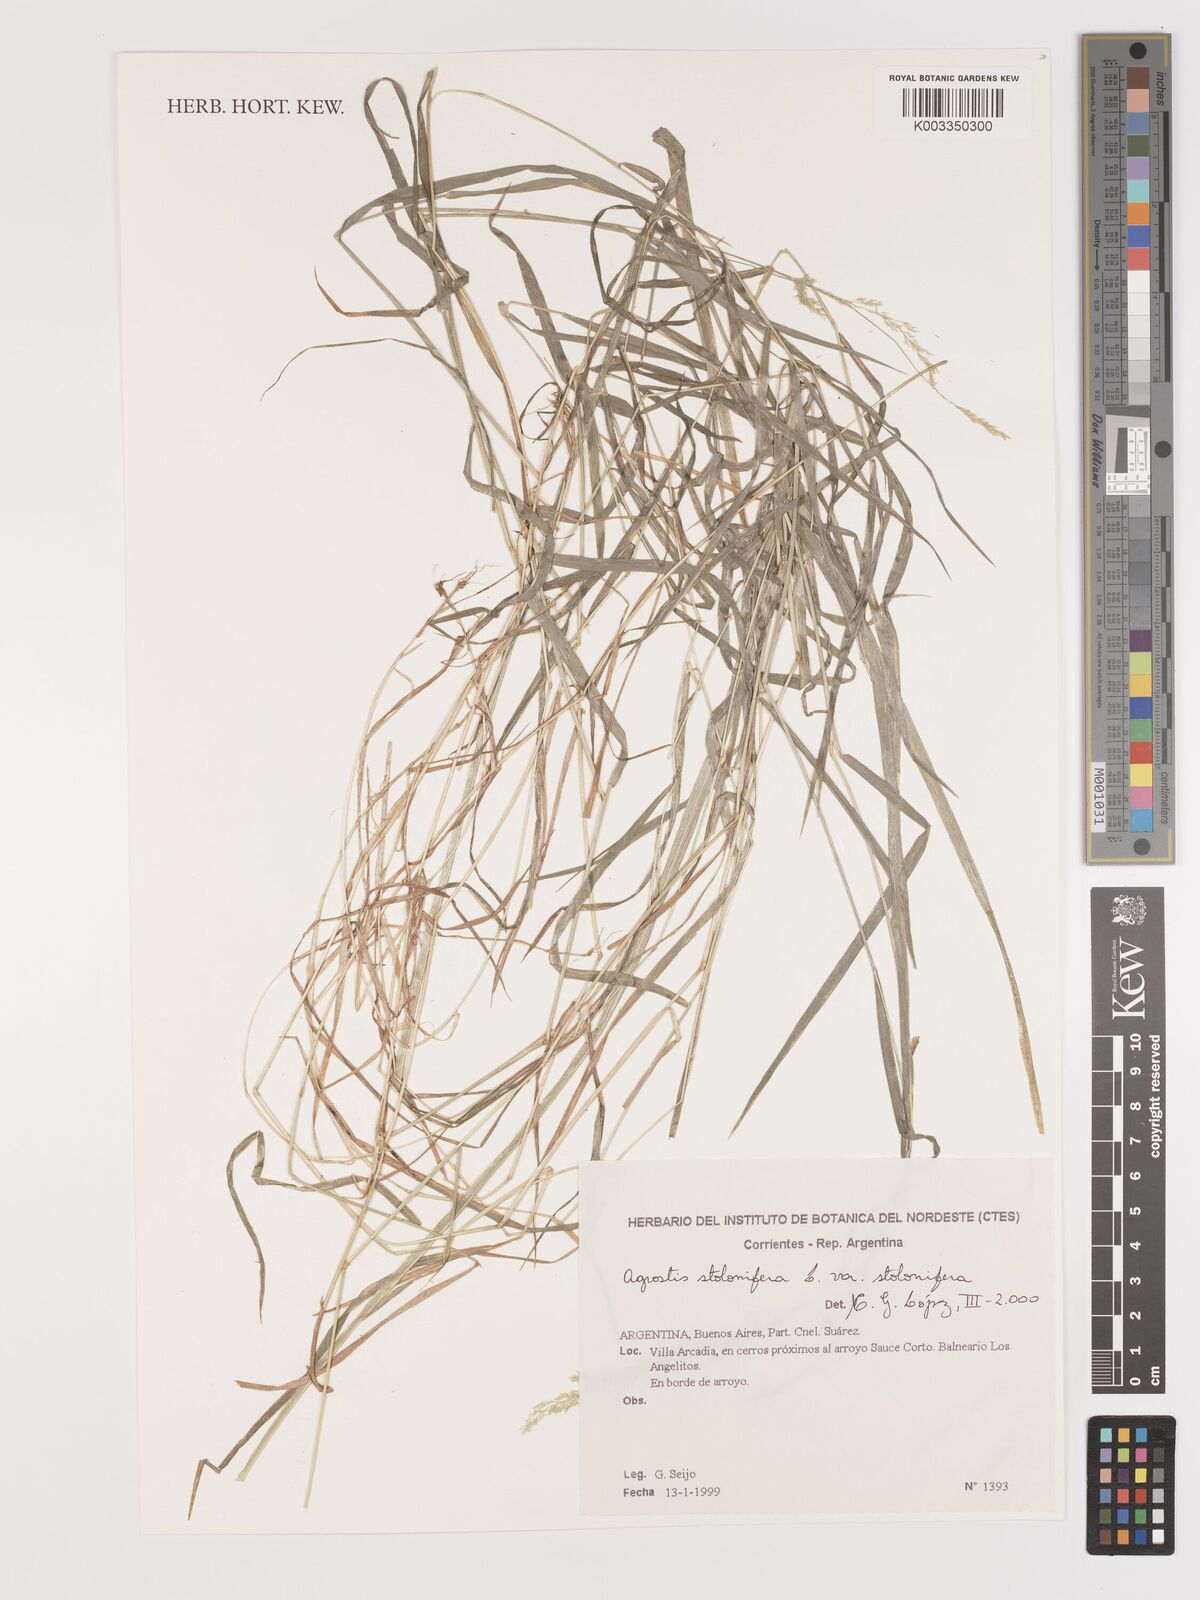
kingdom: Plantae
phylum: Tracheophyta
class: Liliopsida
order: Poales
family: Poaceae
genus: Agrostis
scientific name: Agrostis stolonifera
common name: Creeping bentgrass
